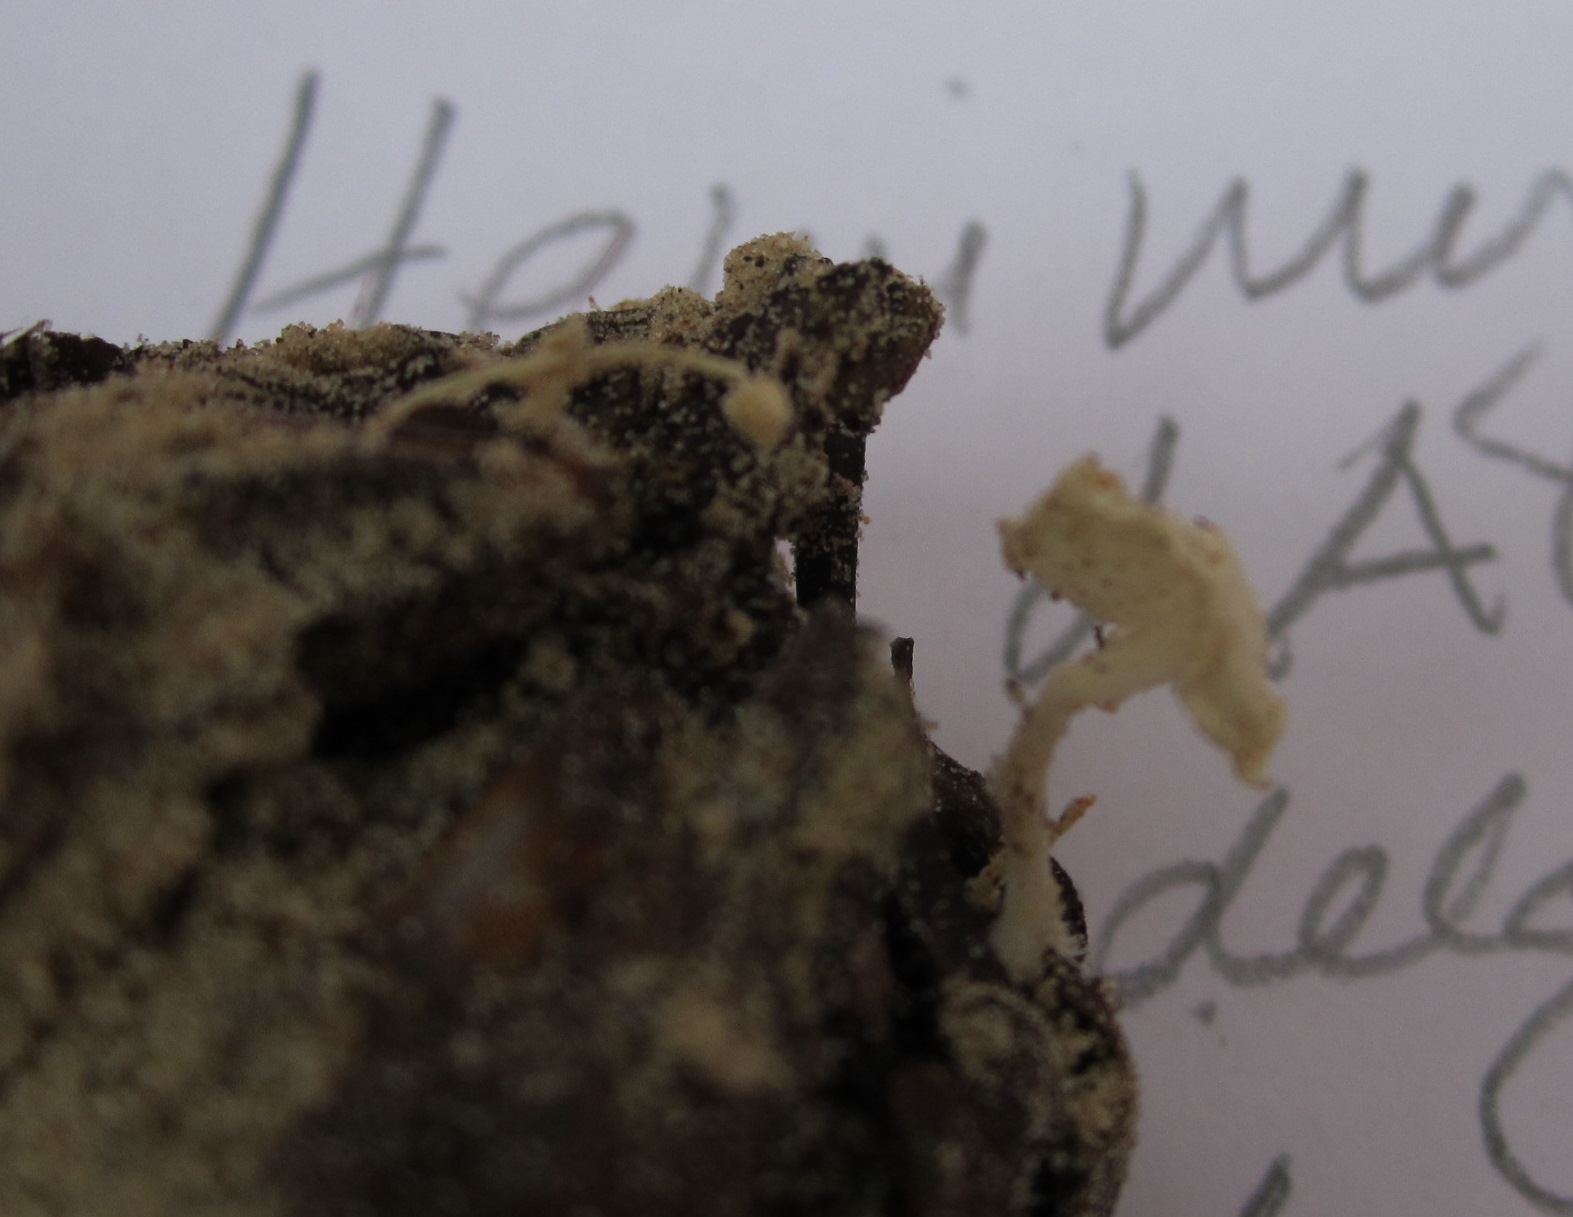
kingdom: Fungi
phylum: Basidiomycota
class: Agaricomycetes
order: Agaricales
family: Mycenaceae
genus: Hemimycena
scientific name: Hemimycena lactea
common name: mælkehvid huesvamp
